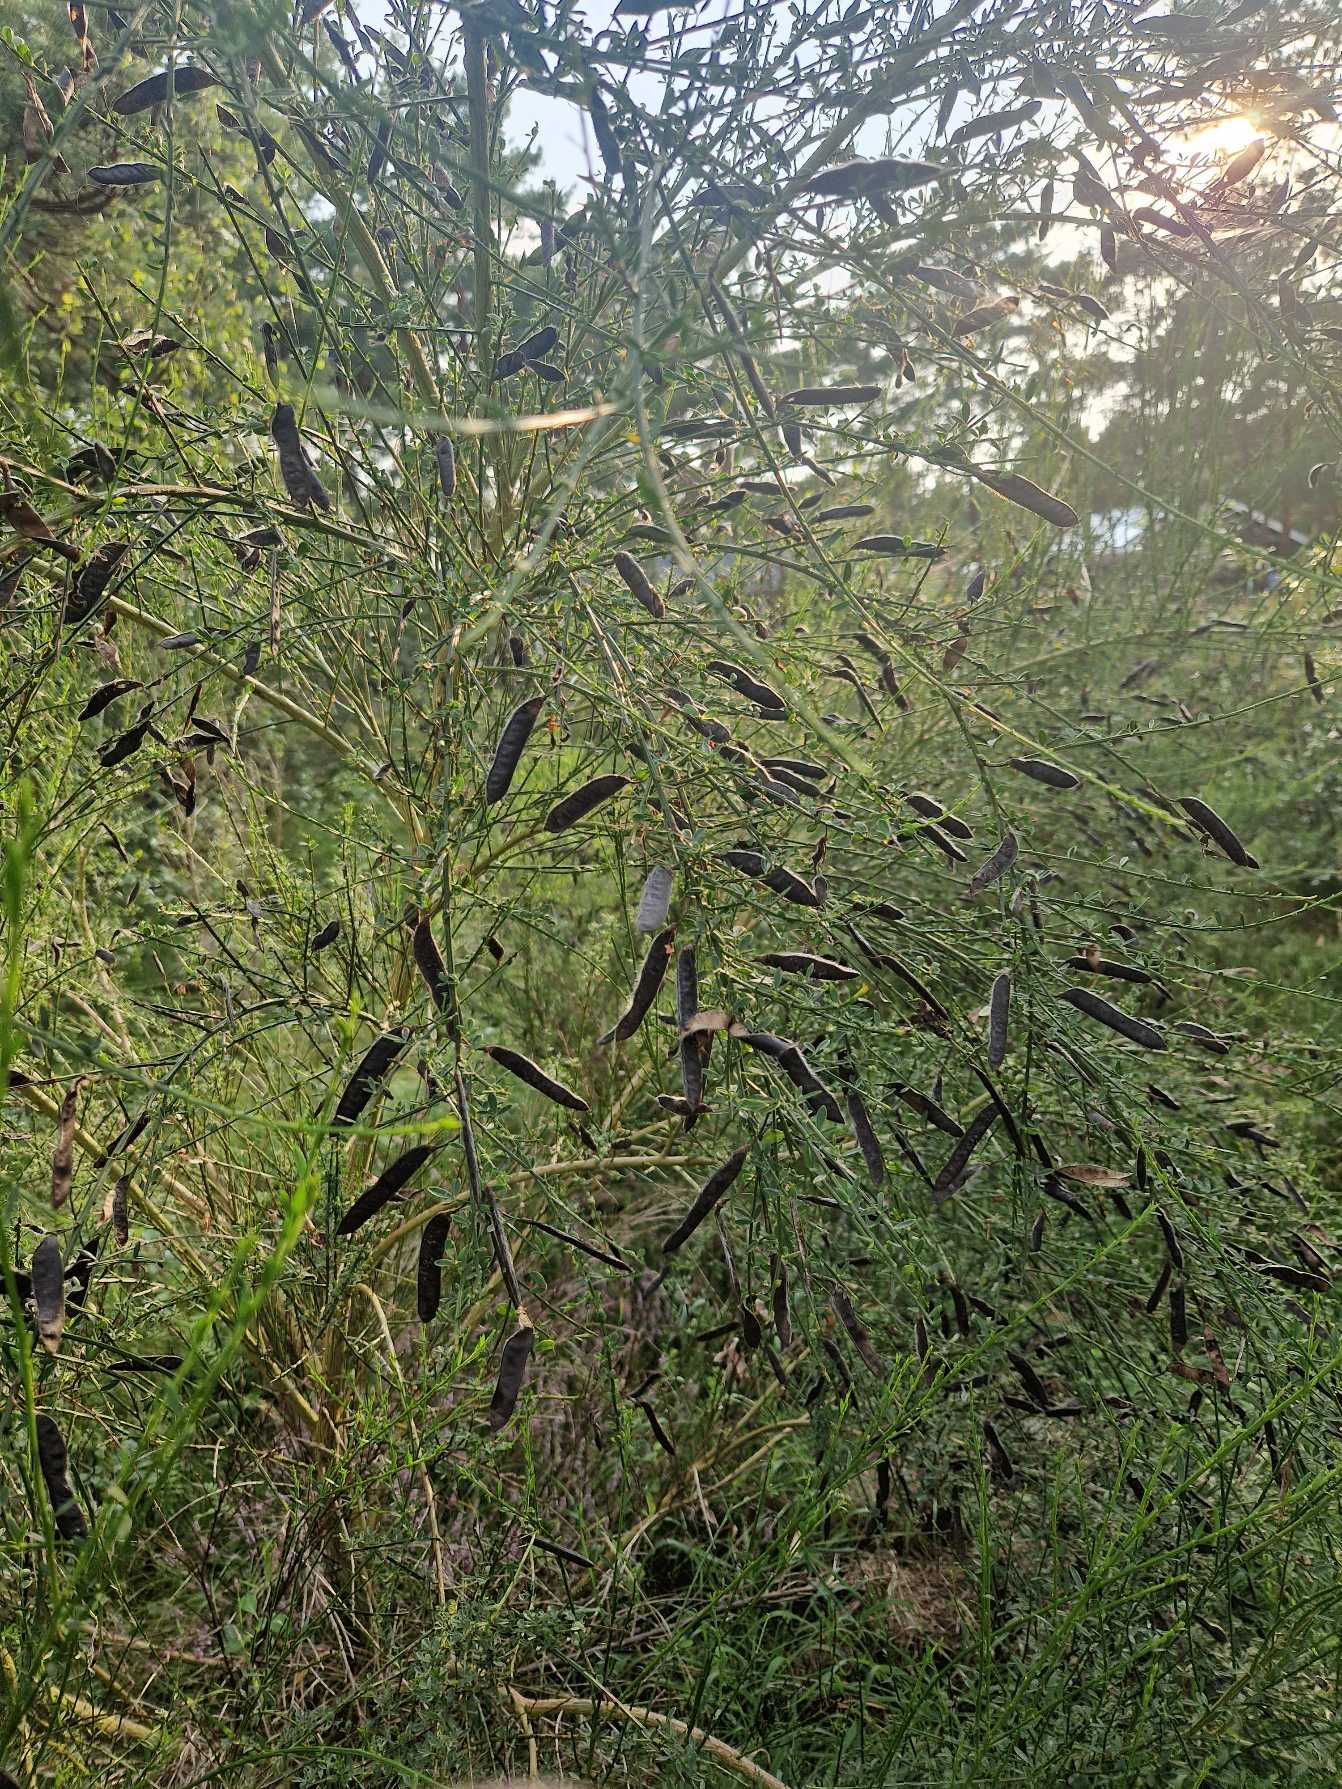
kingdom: Plantae
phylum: Tracheophyta
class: Magnoliopsida
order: Fabales
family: Fabaceae
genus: Cytisus
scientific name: Cytisus scoparius
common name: Almindelig gyvel
